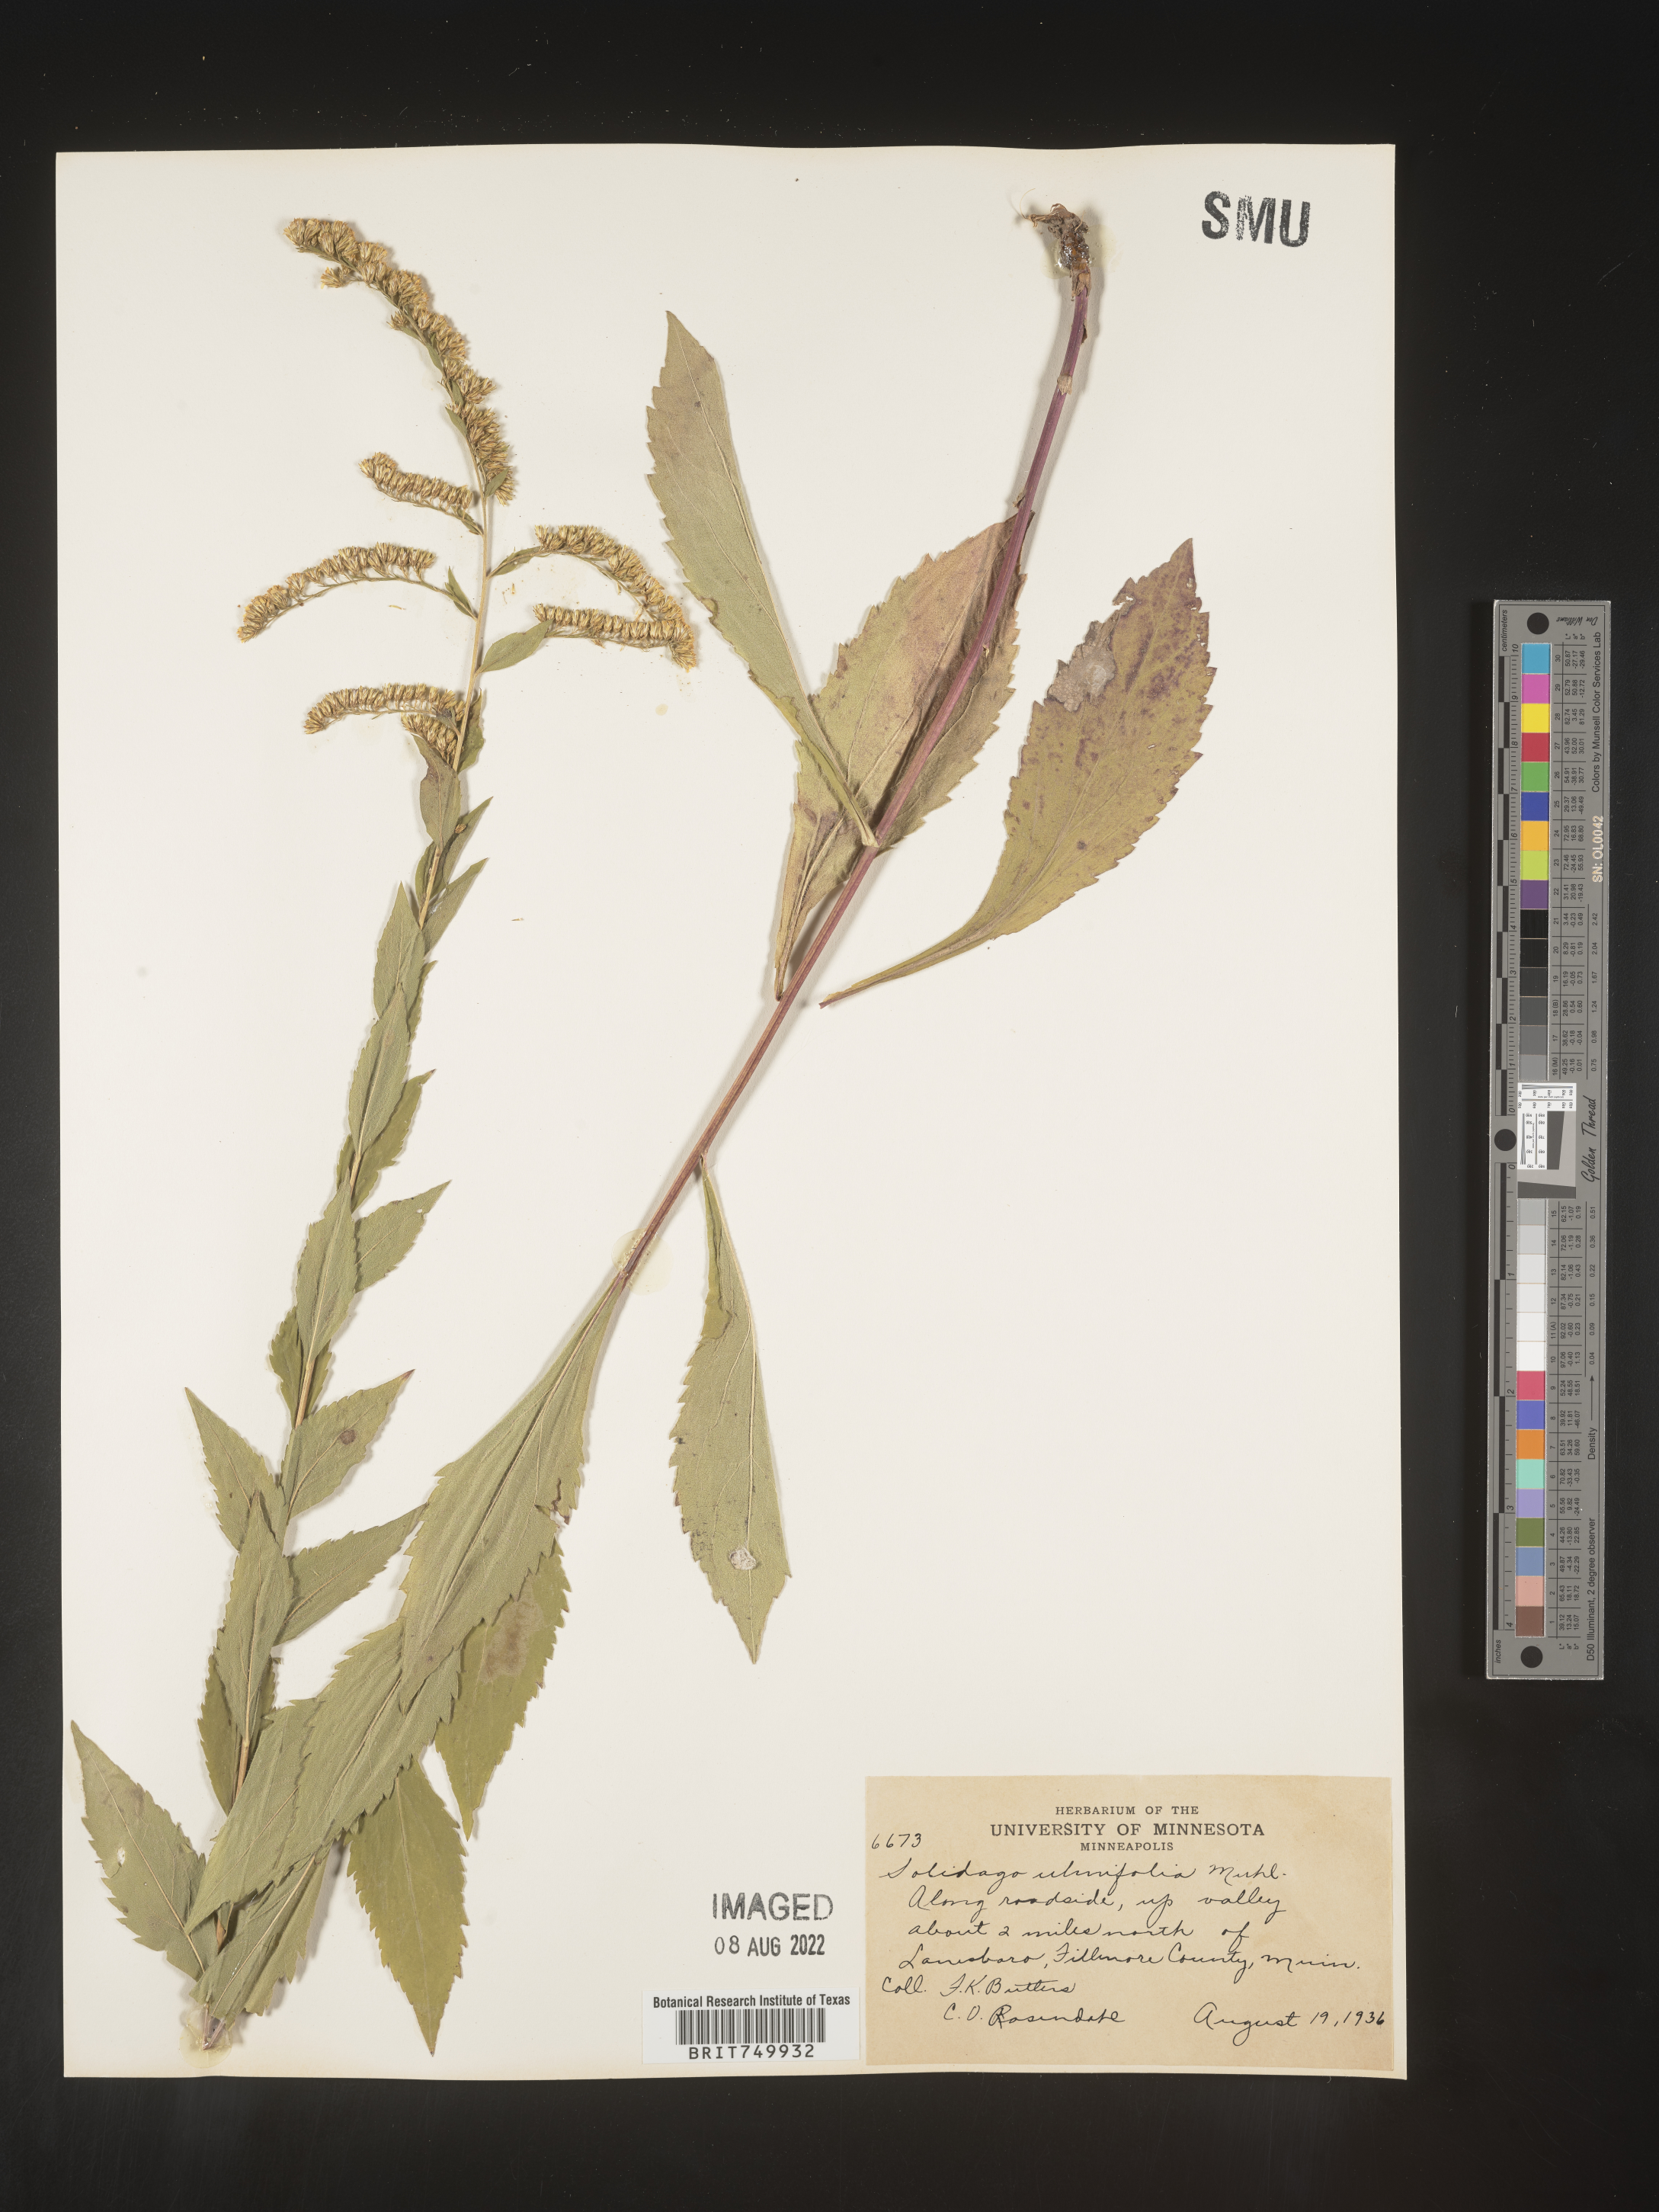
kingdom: Plantae
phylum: Tracheophyta
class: Magnoliopsida
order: Asterales
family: Asteraceae
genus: Solidago
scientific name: Solidago ulmifolia
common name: Elm-leaf goldenrod
